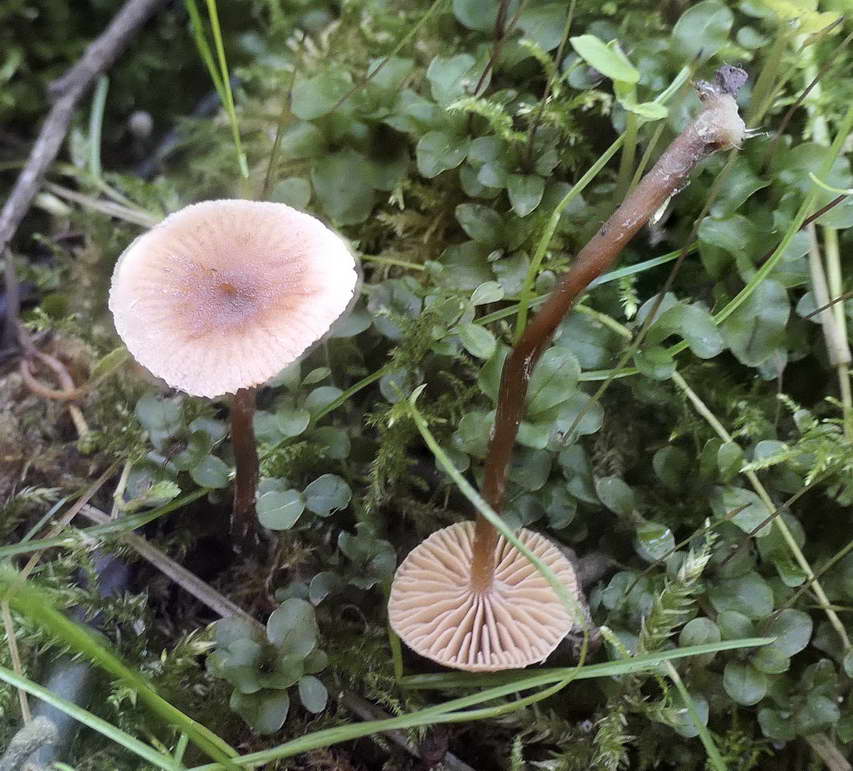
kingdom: Fungi
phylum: Basidiomycota
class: Agaricomycetes
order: Agaricales
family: Hymenogastraceae
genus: Naucoria
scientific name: Naucoria escharioides
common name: lys elle-knaphat
